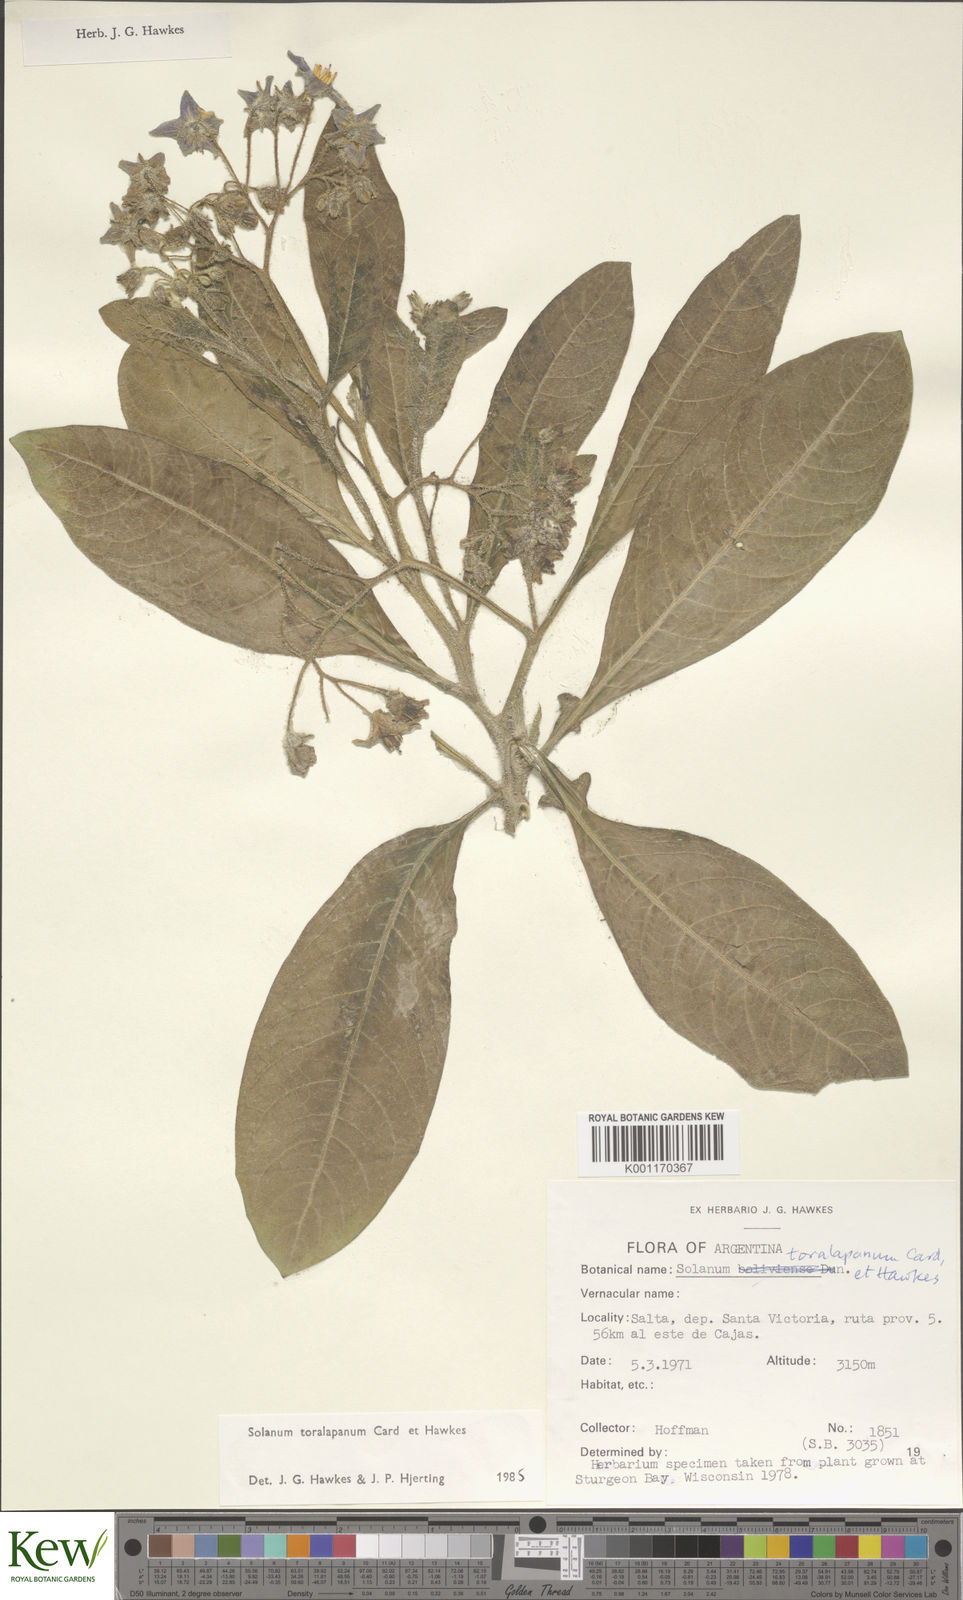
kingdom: Plantae
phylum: Tracheophyta
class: Magnoliopsida
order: Solanales
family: Solanaceae
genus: Solanum
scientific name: Solanum
